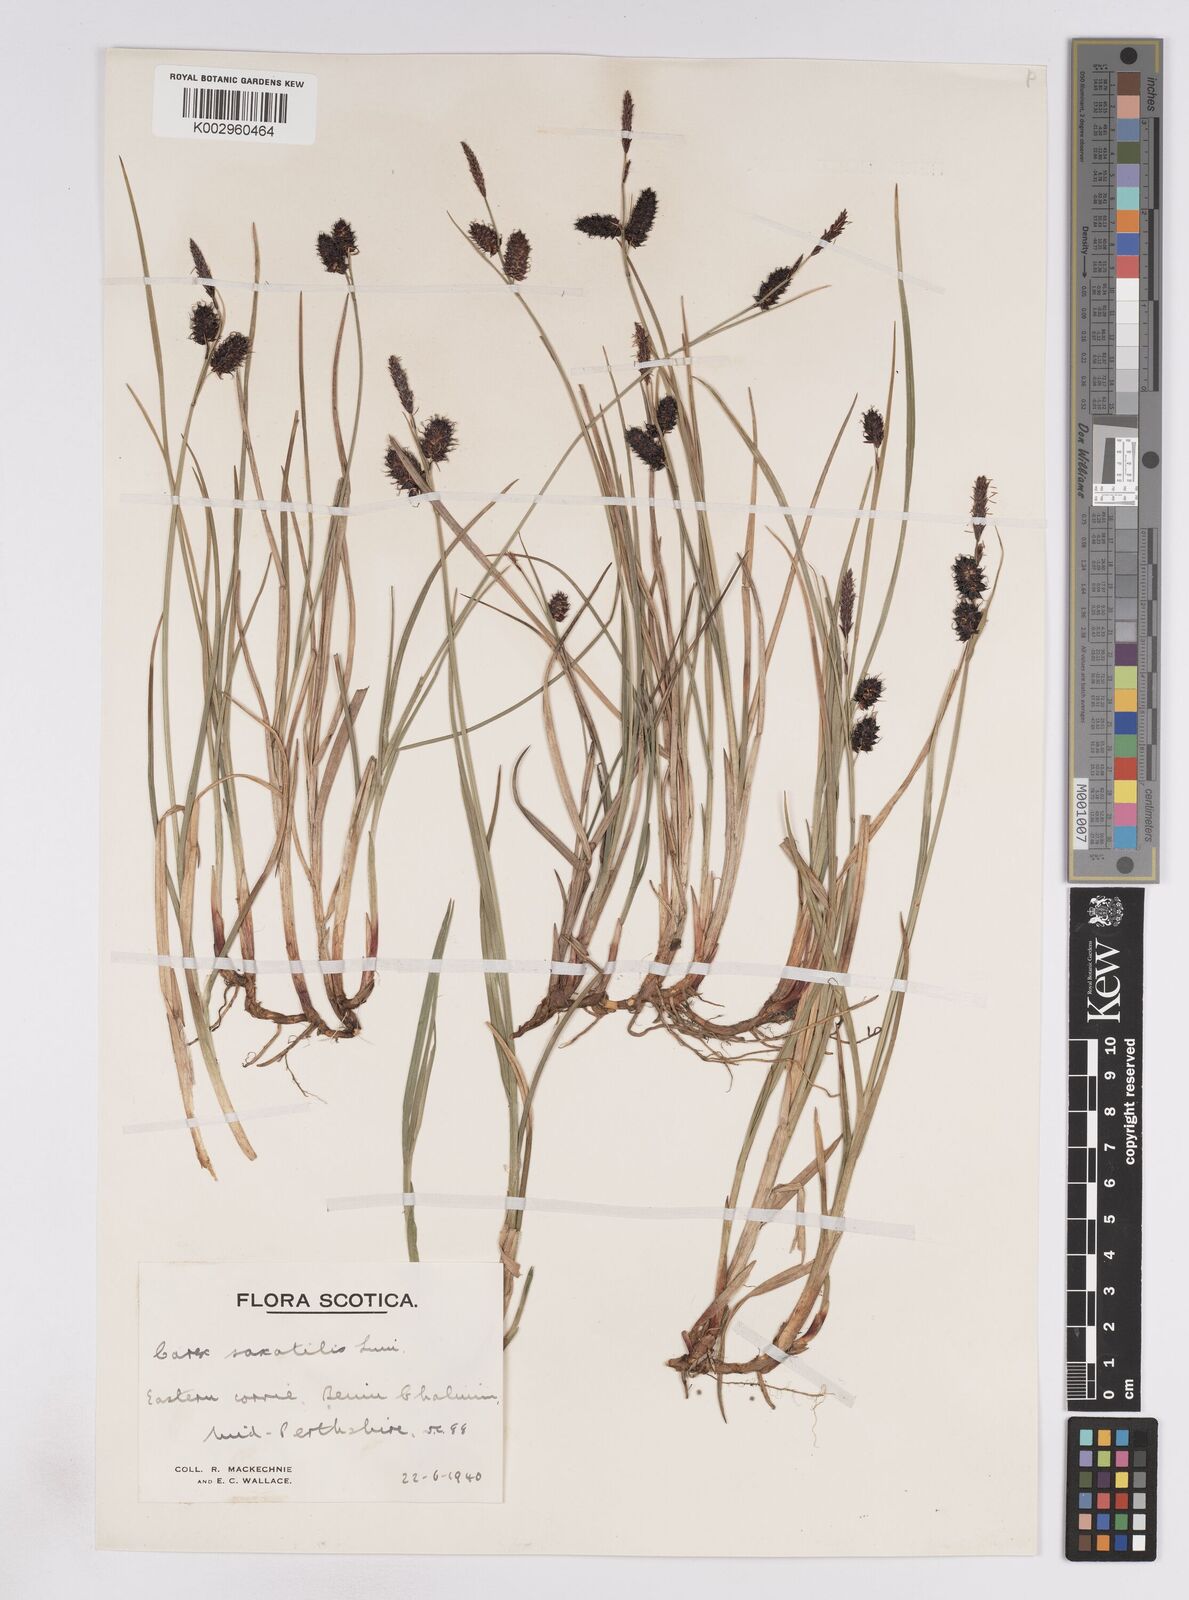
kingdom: Plantae
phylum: Tracheophyta
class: Liliopsida
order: Poales
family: Cyperaceae
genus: Carex
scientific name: Carex saxatilis
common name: Russet sedge
